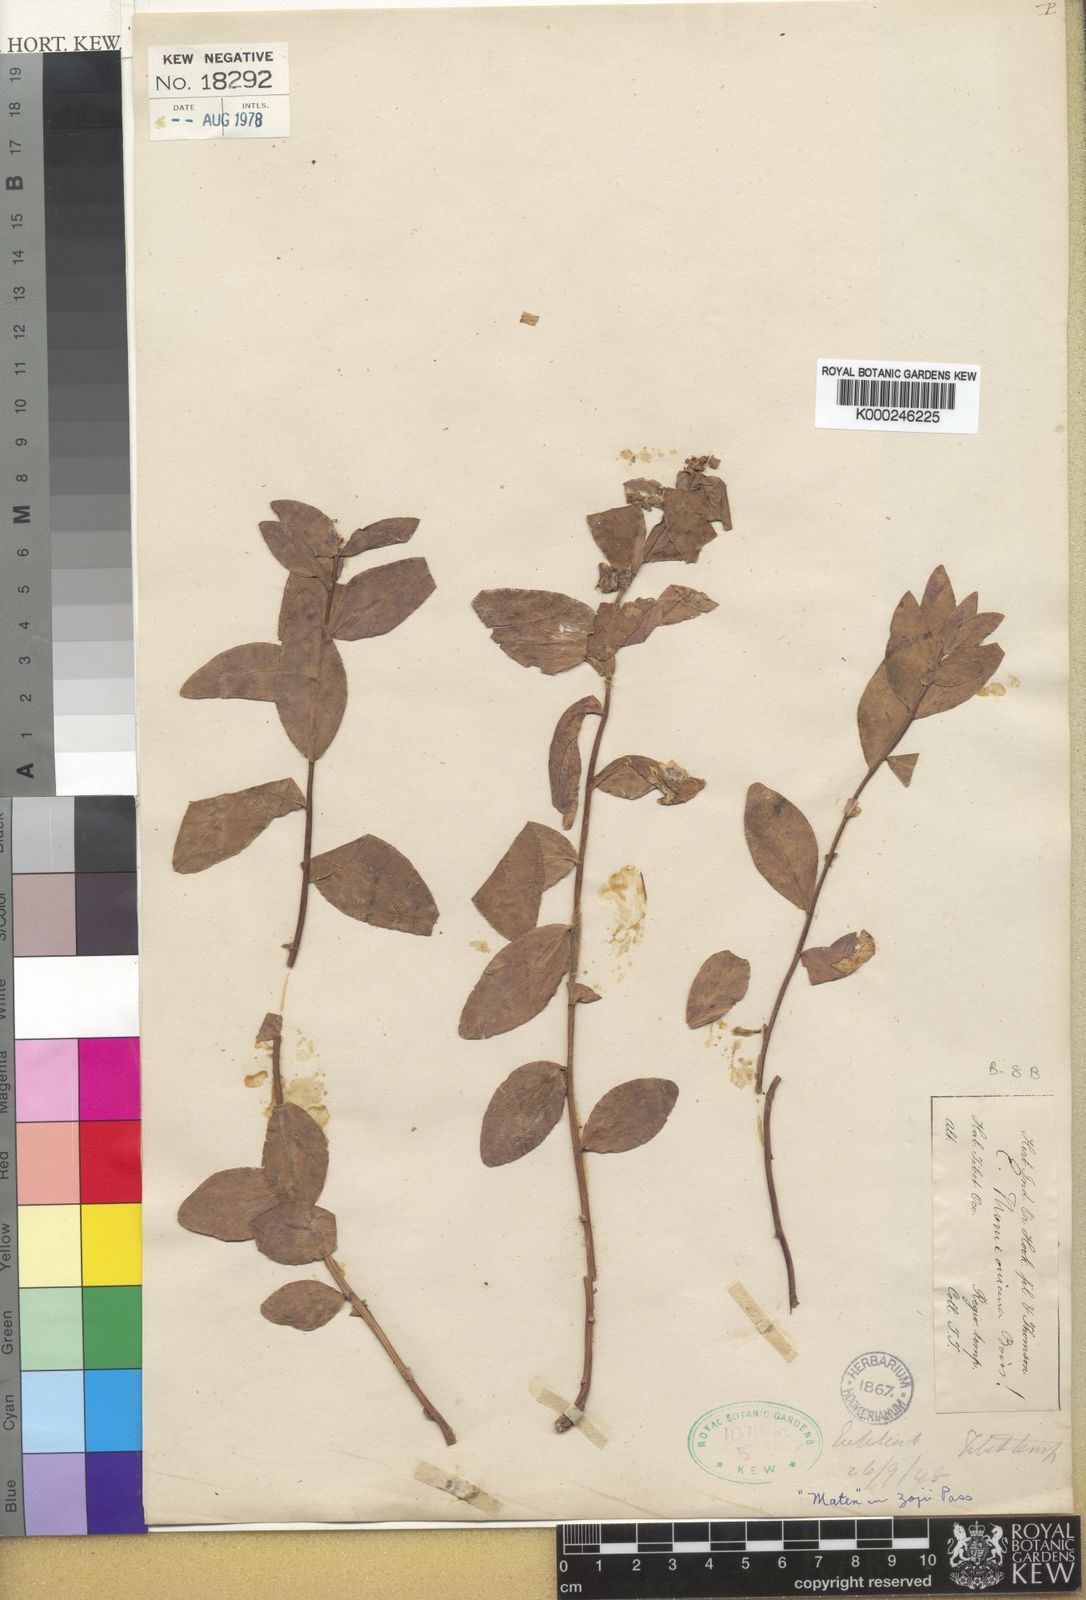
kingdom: Plantae
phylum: Tracheophyta
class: Magnoliopsida
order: Malpighiales
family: Euphorbiaceae
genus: Euphorbia
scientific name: Euphorbia thomsoniana
